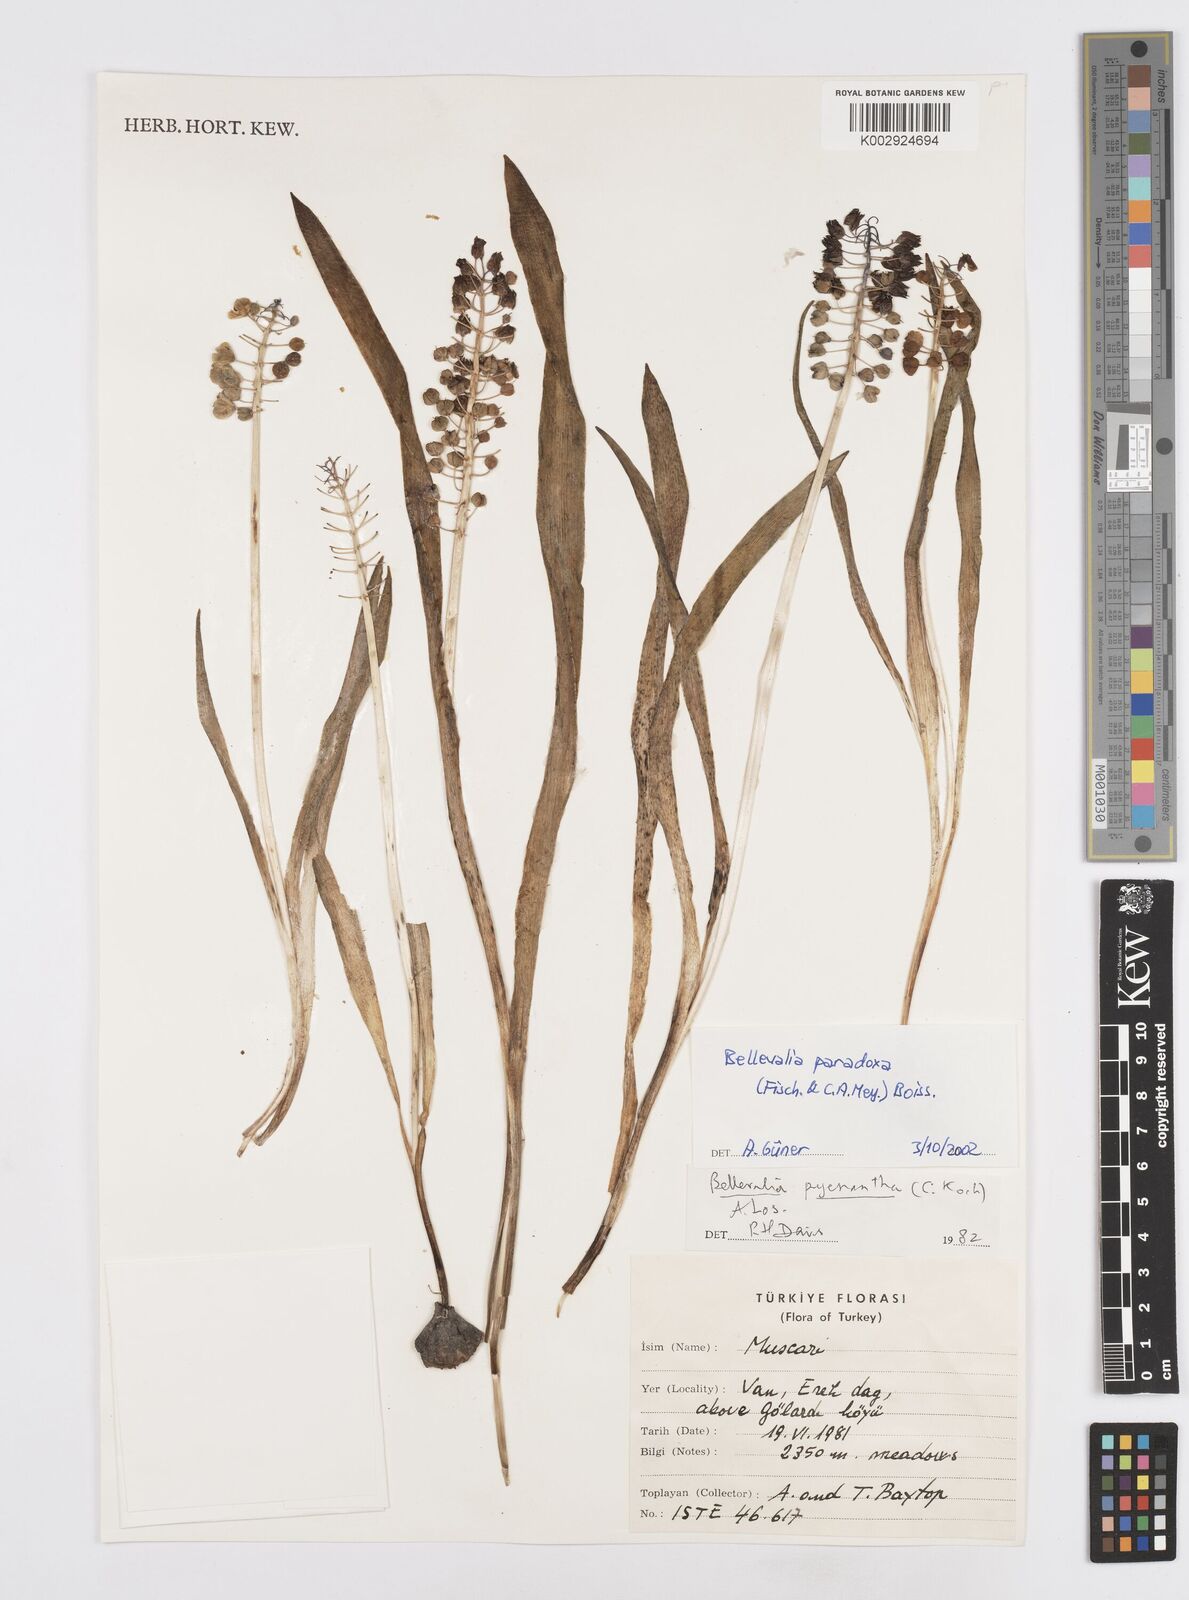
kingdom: Plantae
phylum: Tracheophyta
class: Liliopsida
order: Asparagales
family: Asparagaceae
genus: Bellevalia
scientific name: Bellevalia paradoxa
